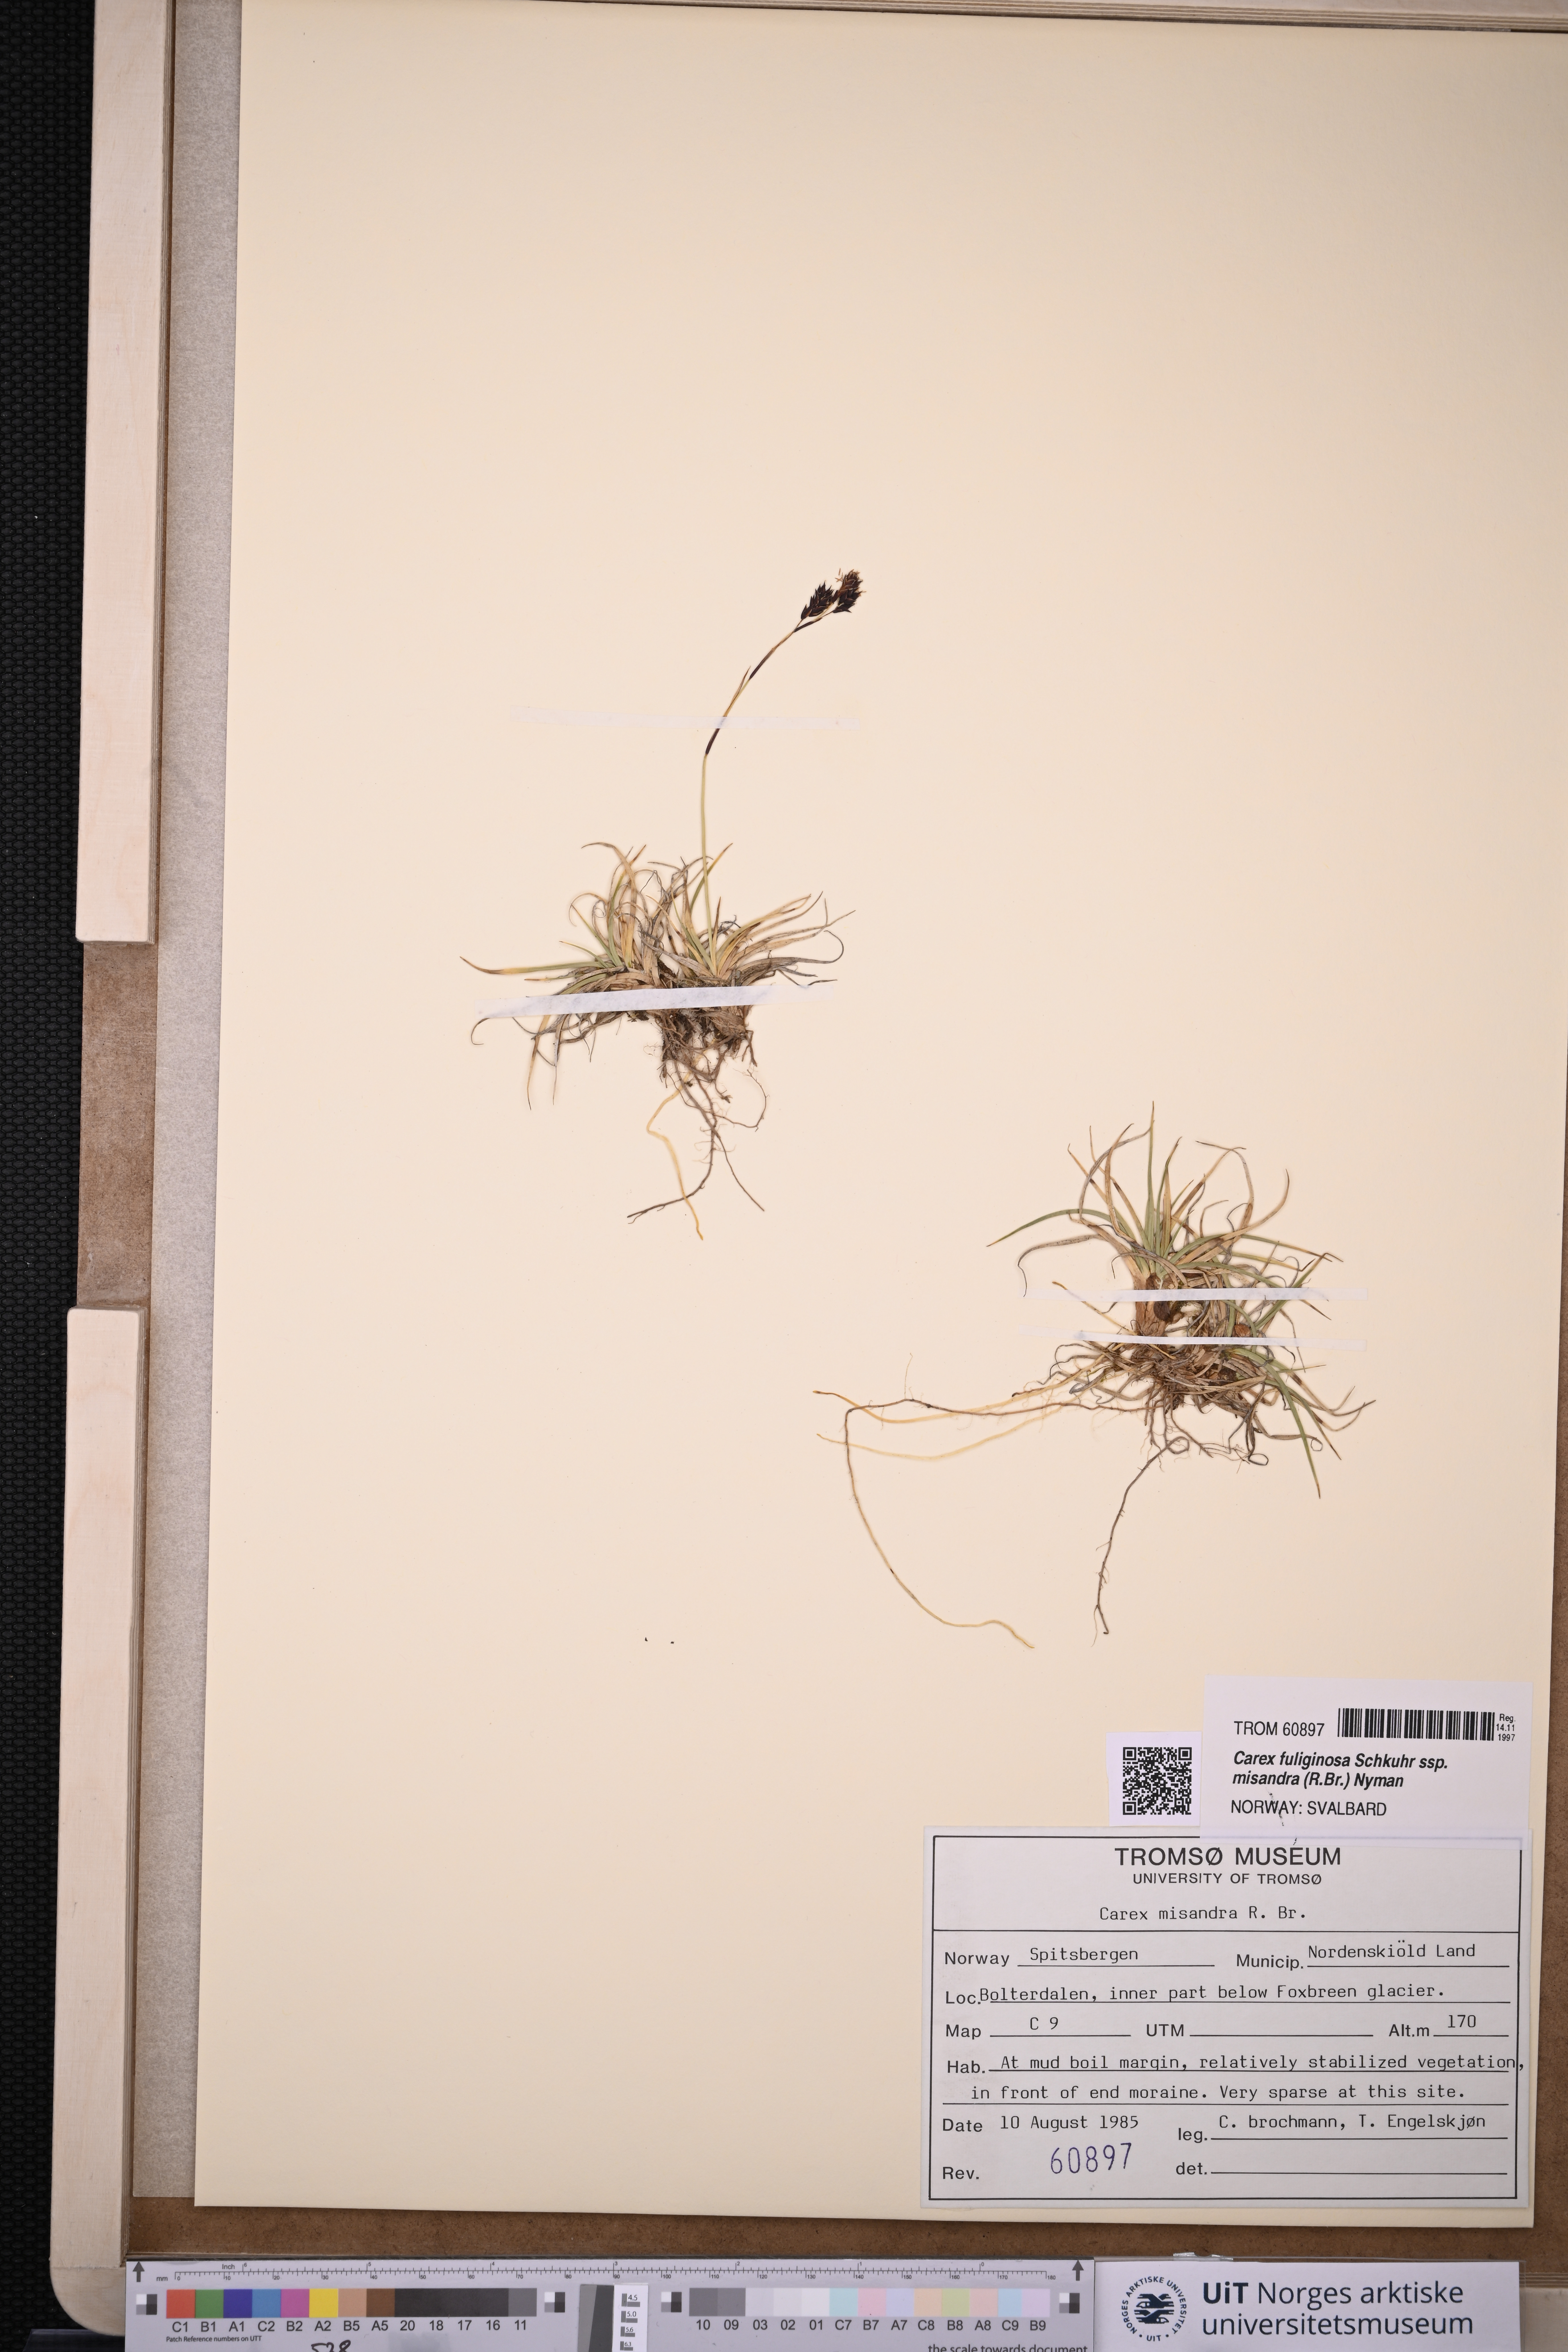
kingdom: Plantae
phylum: Tracheophyta
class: Liliopsida
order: Poales
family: Cyperaceae
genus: Carex
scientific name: Carex fuliginosa
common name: Few-flowered sedge
